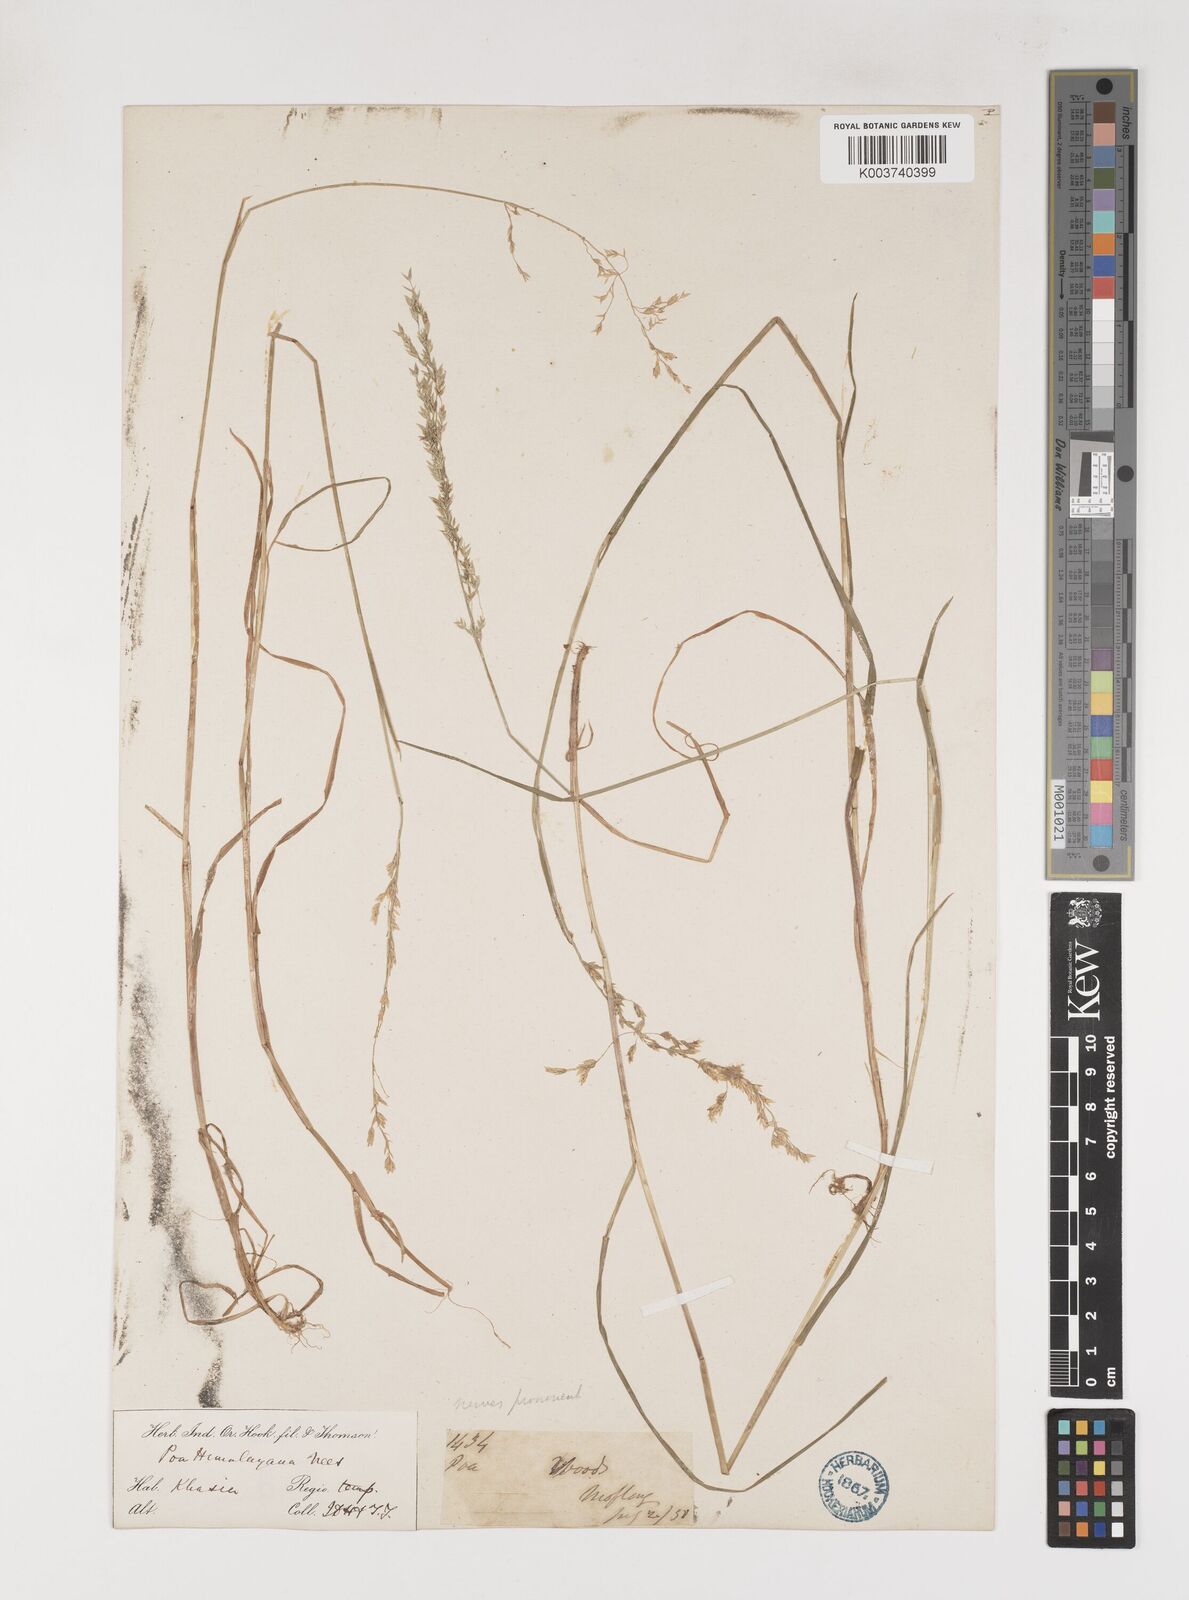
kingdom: Plantae
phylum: Tracheophyta
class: Liliopsida
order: Poales
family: Poaceae
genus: Poa
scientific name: Poa khasiana
